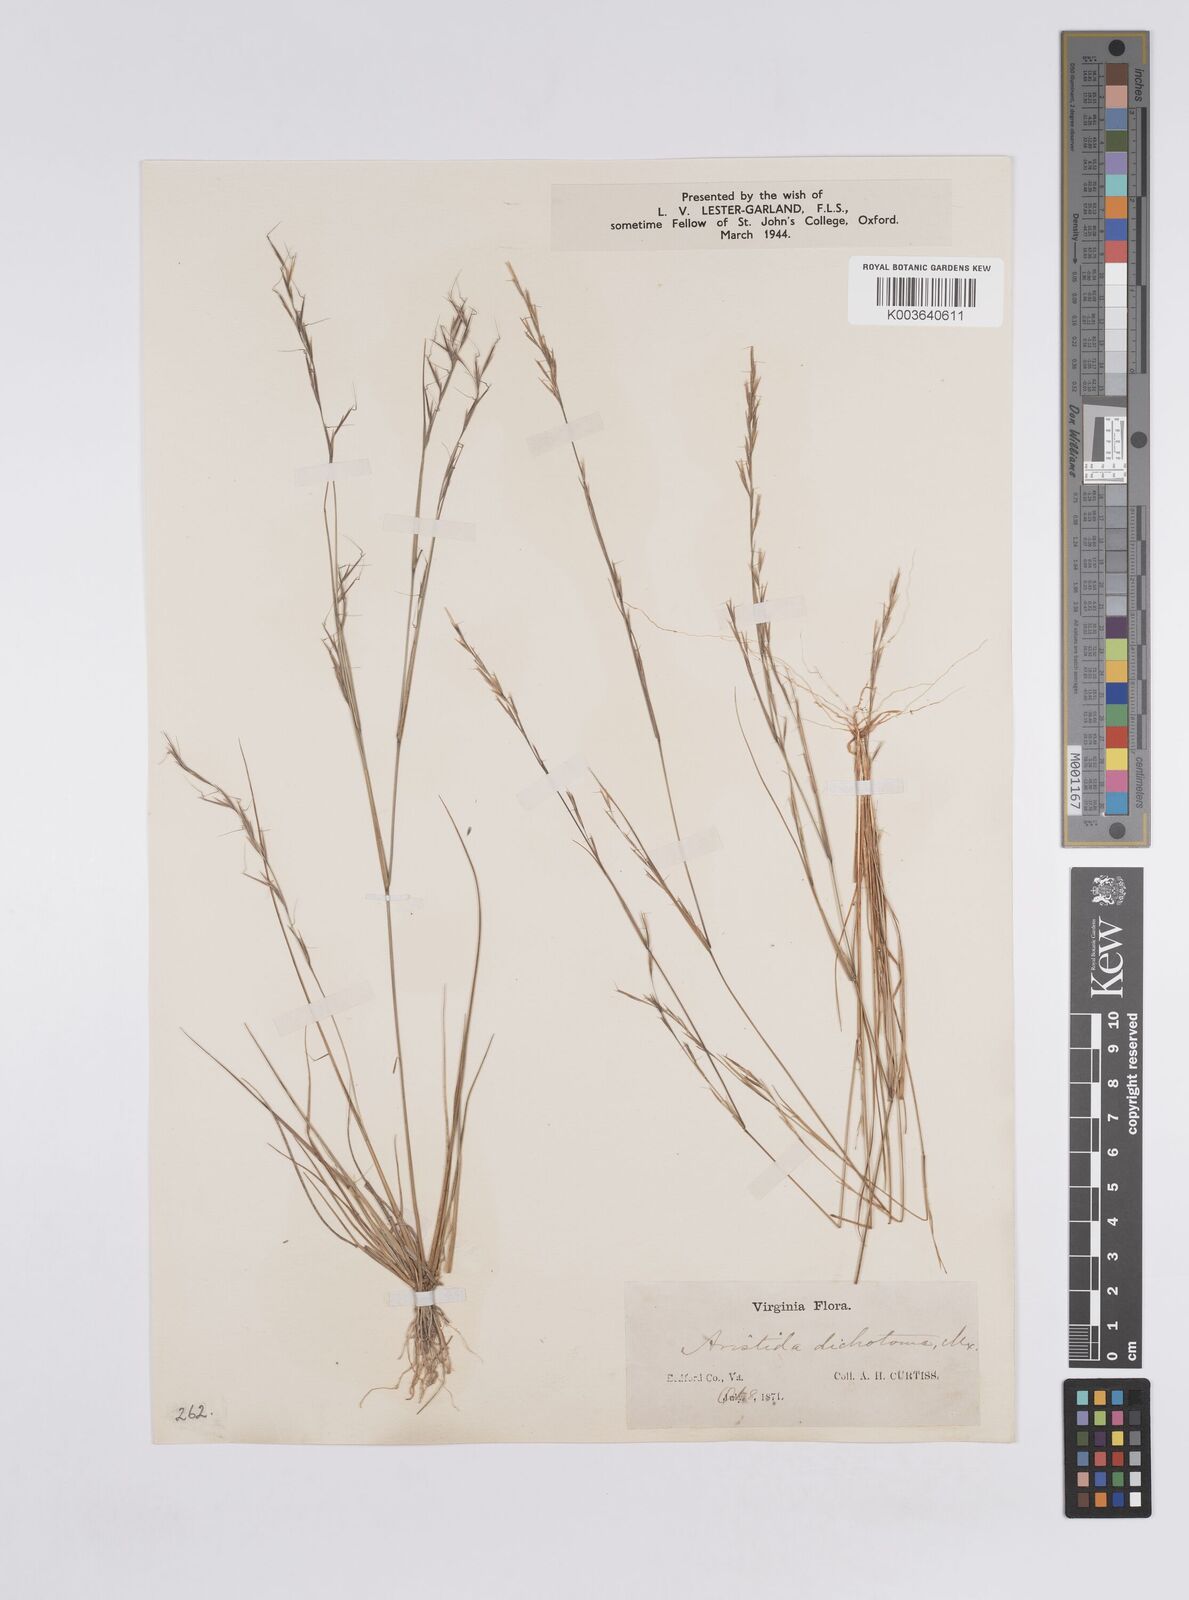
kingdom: Plantae
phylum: Tracheophyta
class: Liliopsida
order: Poales
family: Poaceae
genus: Aristida
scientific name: Aristida dichotoma
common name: Churchmouse three-awn
